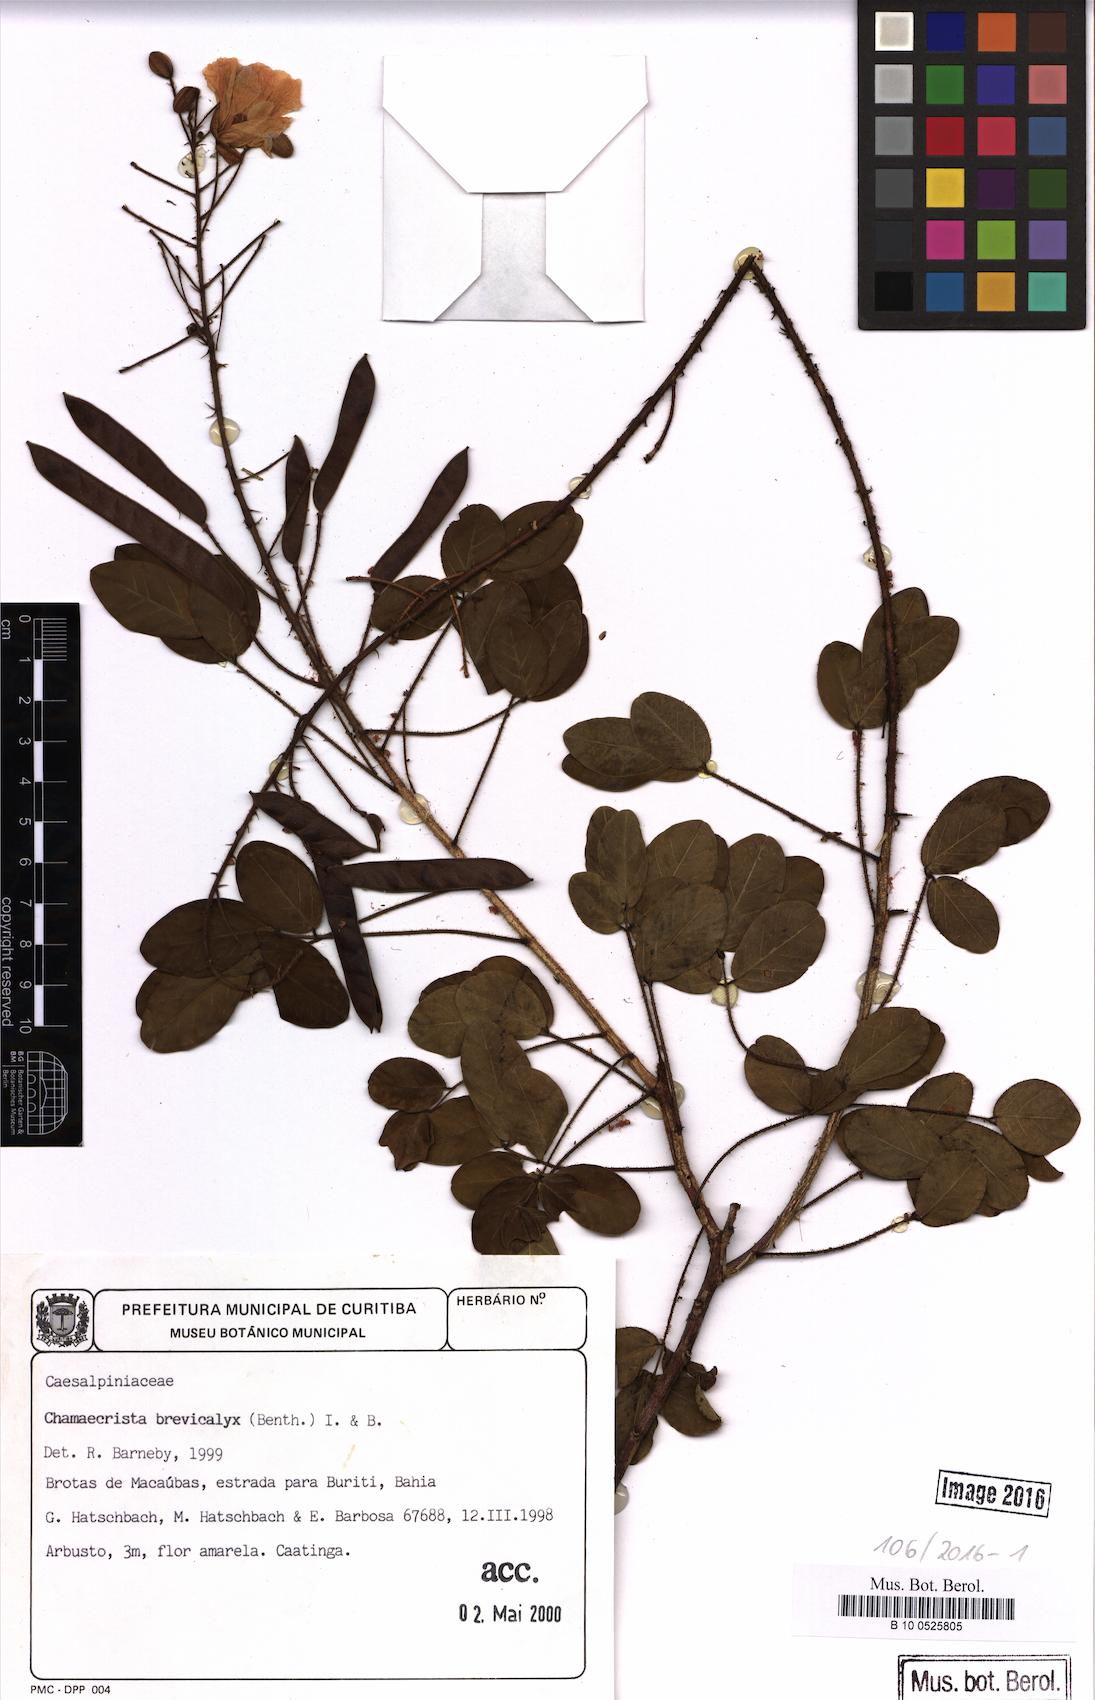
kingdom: Plantae
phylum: Tracheophyta
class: Magnoliopsida
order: Fabales
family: Fabaceae
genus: Chamaecrista
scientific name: Chamaecrista brevicalyx
